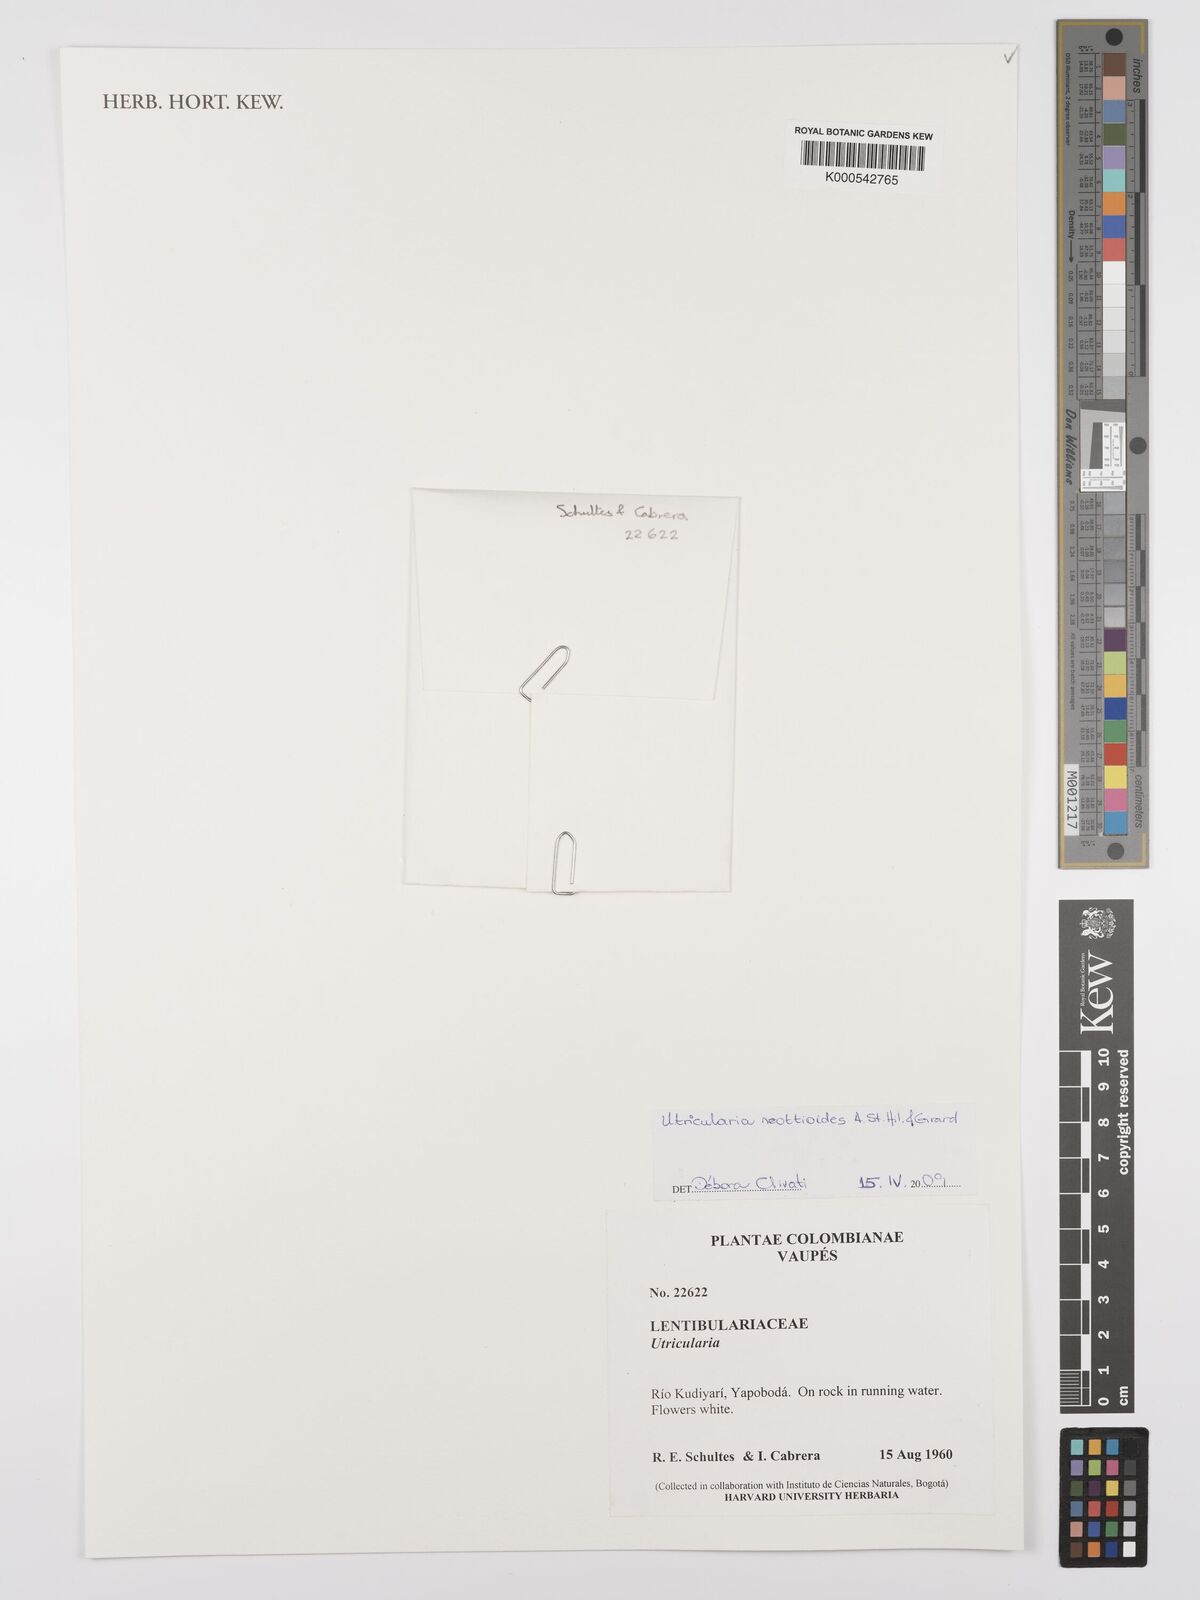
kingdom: Plantae
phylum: Tracheophyta
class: Magnoliopsida
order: Lamiales
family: Lentibulariaceae
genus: Utricularia
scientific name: Utricularia neottioides
